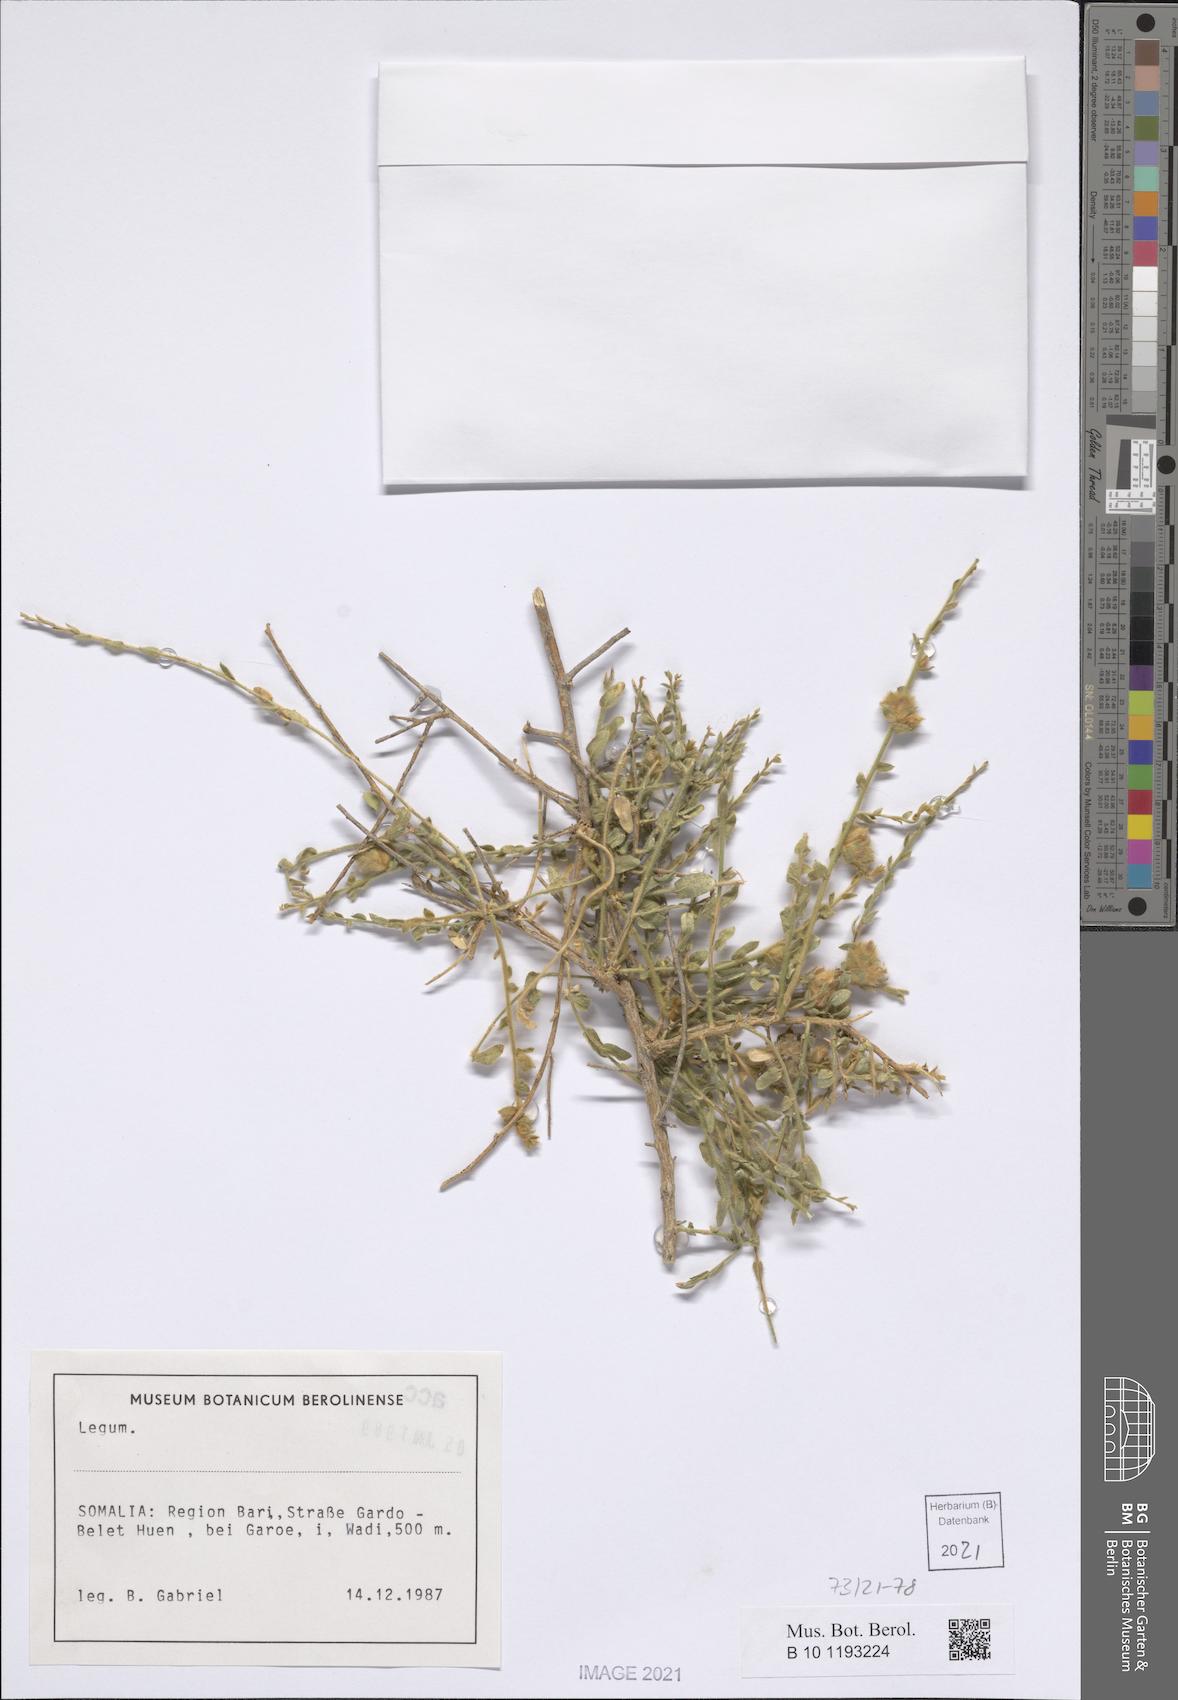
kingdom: Plantae
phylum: Tracheophyta
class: Magnoliopsida
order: Solanales
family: Convolvulaceae
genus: Convolvulus
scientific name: Convolvulus hystrix
